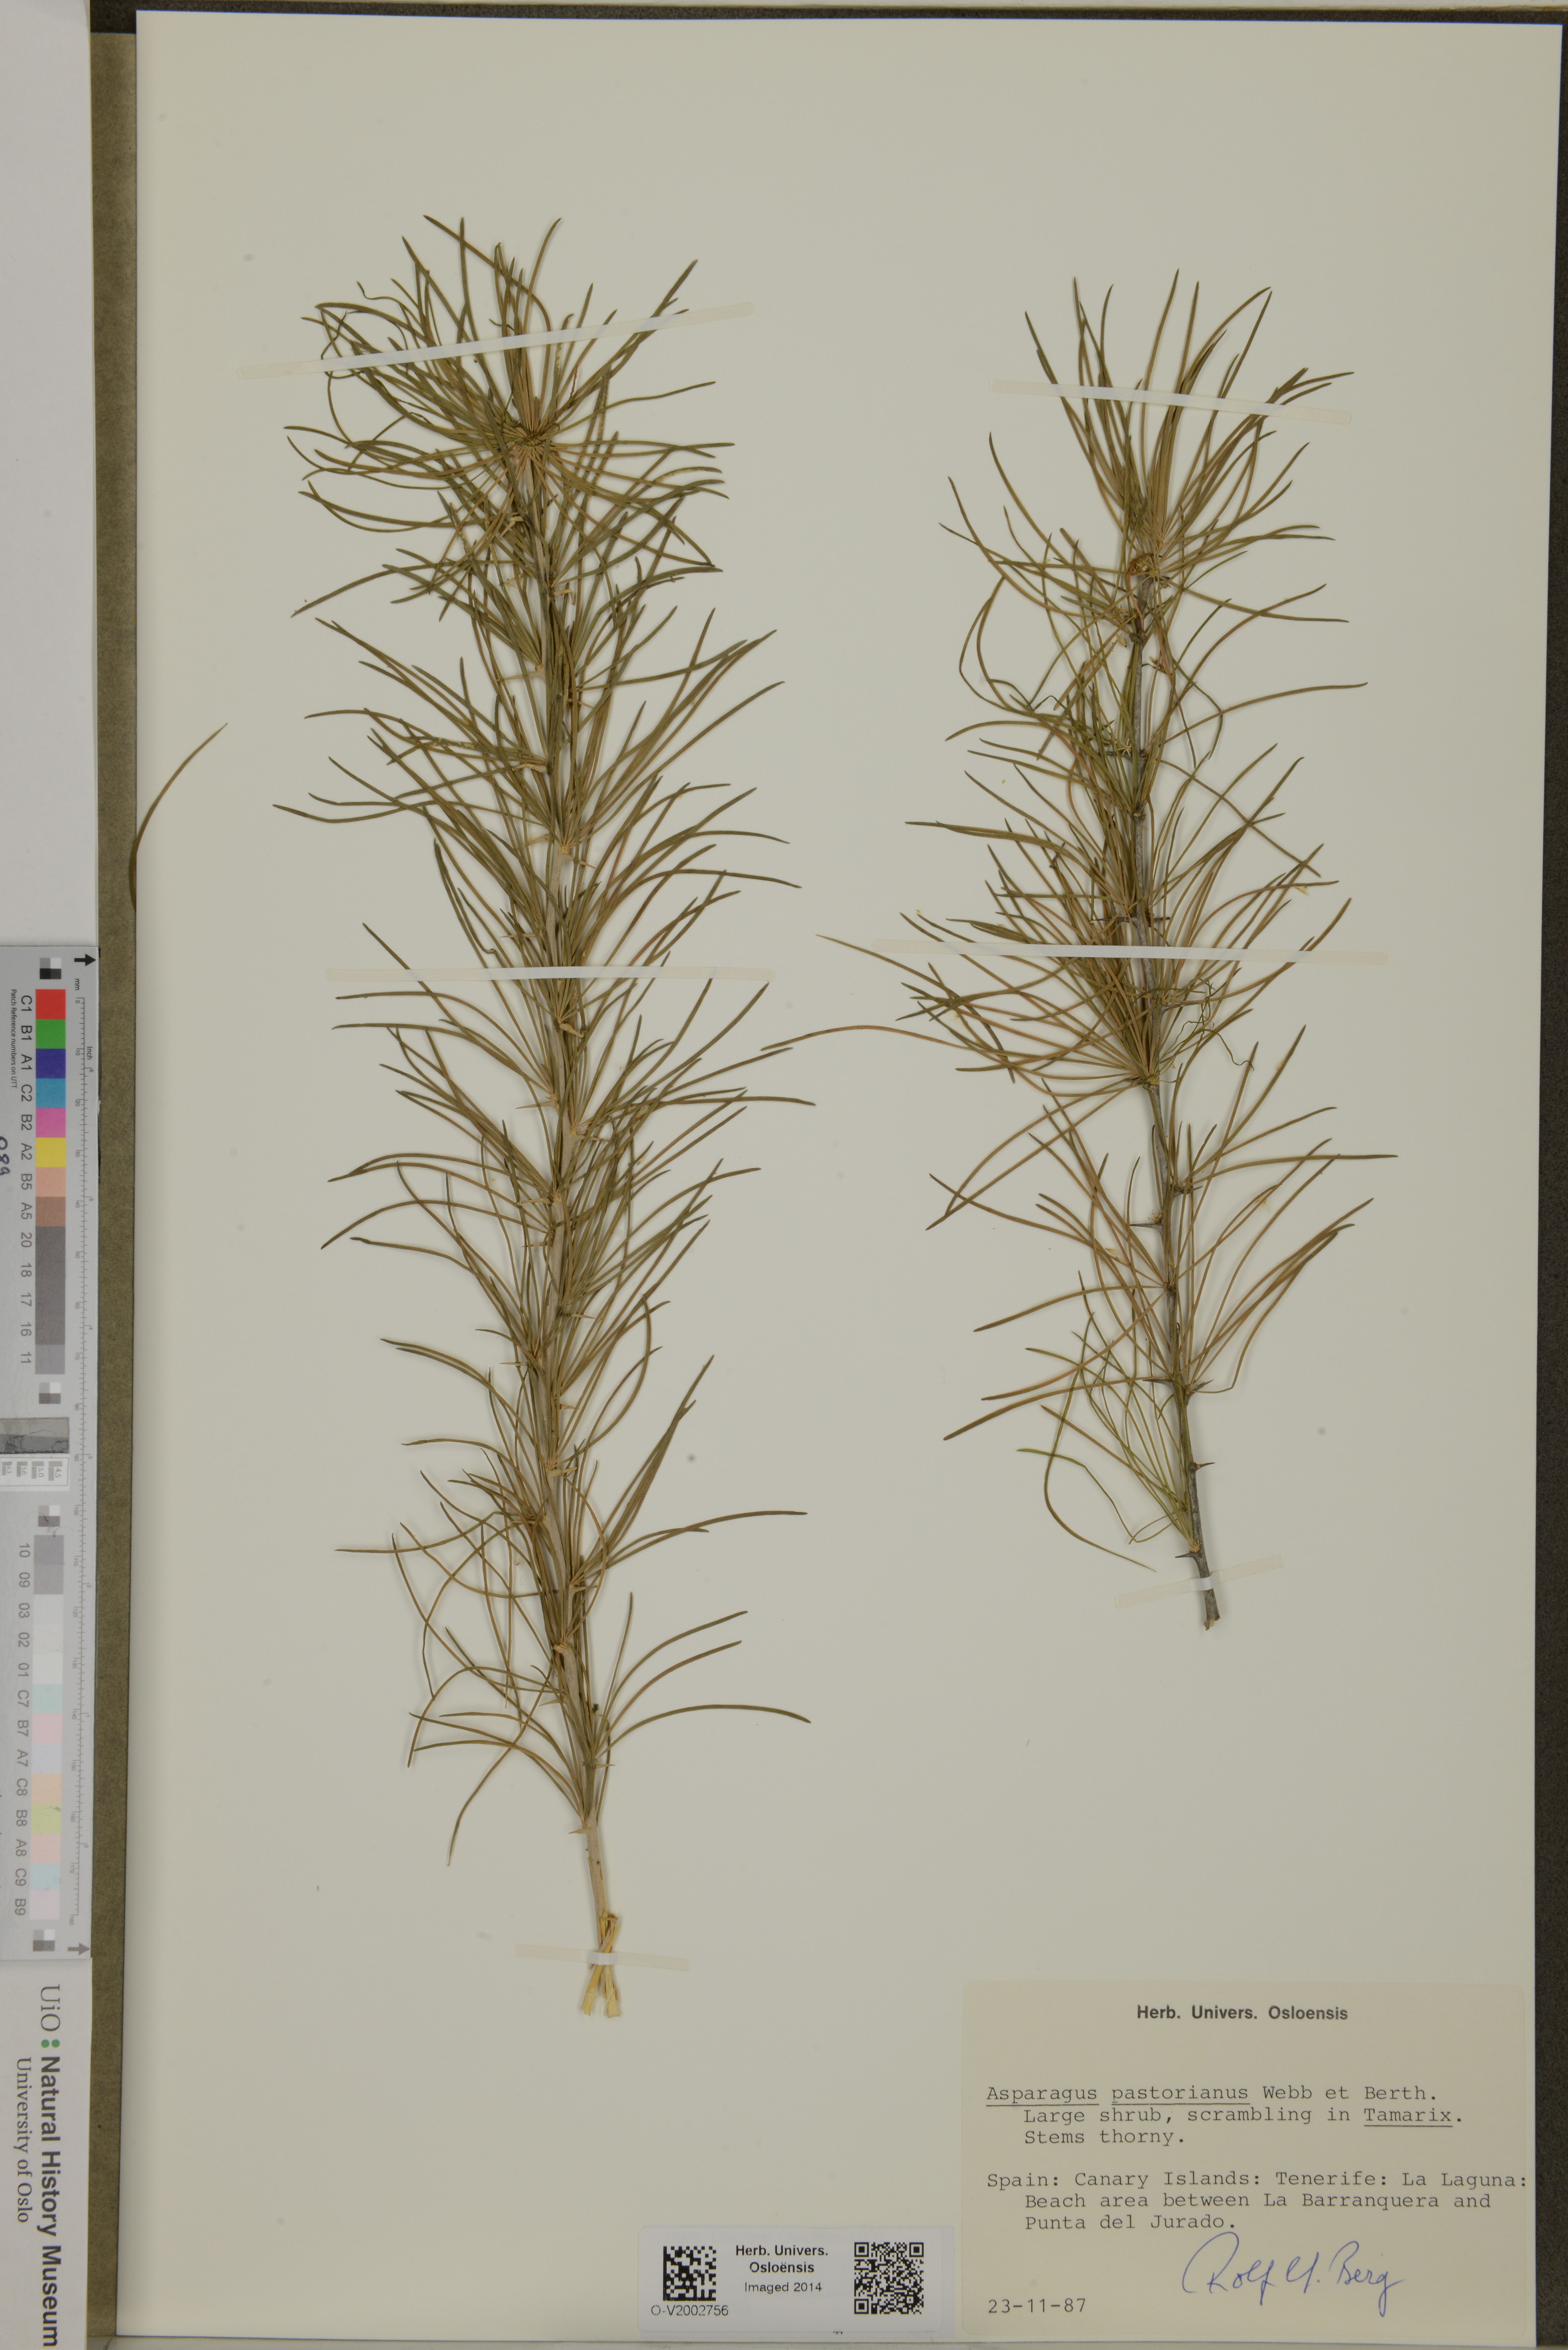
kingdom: Plantae
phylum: Tracheophyta
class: Liliopsida
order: Asparagales
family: Asparagaceae
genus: Asparagus
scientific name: Asparagus pastorianus
